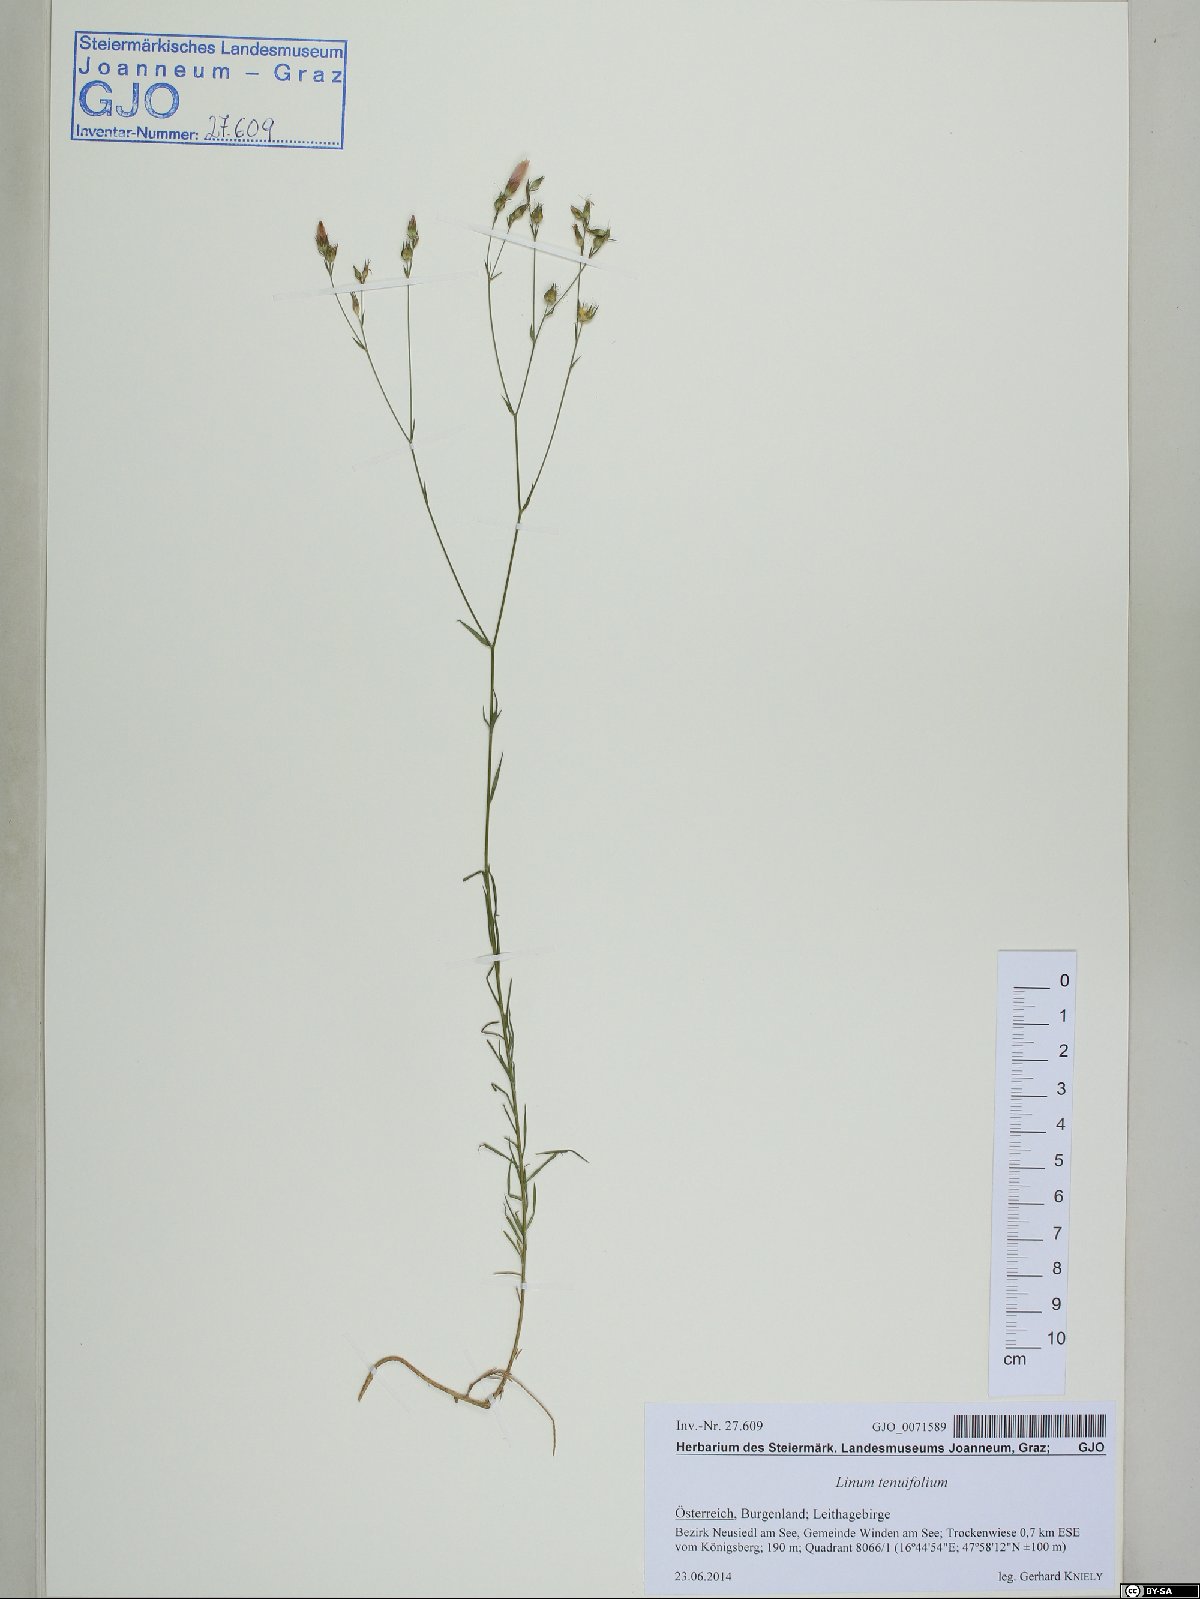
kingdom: Plantae
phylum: Tracheophyta
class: Magnoliopsida
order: Malpighiales
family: Linaceae
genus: Linum
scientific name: Linum tenuifolium
